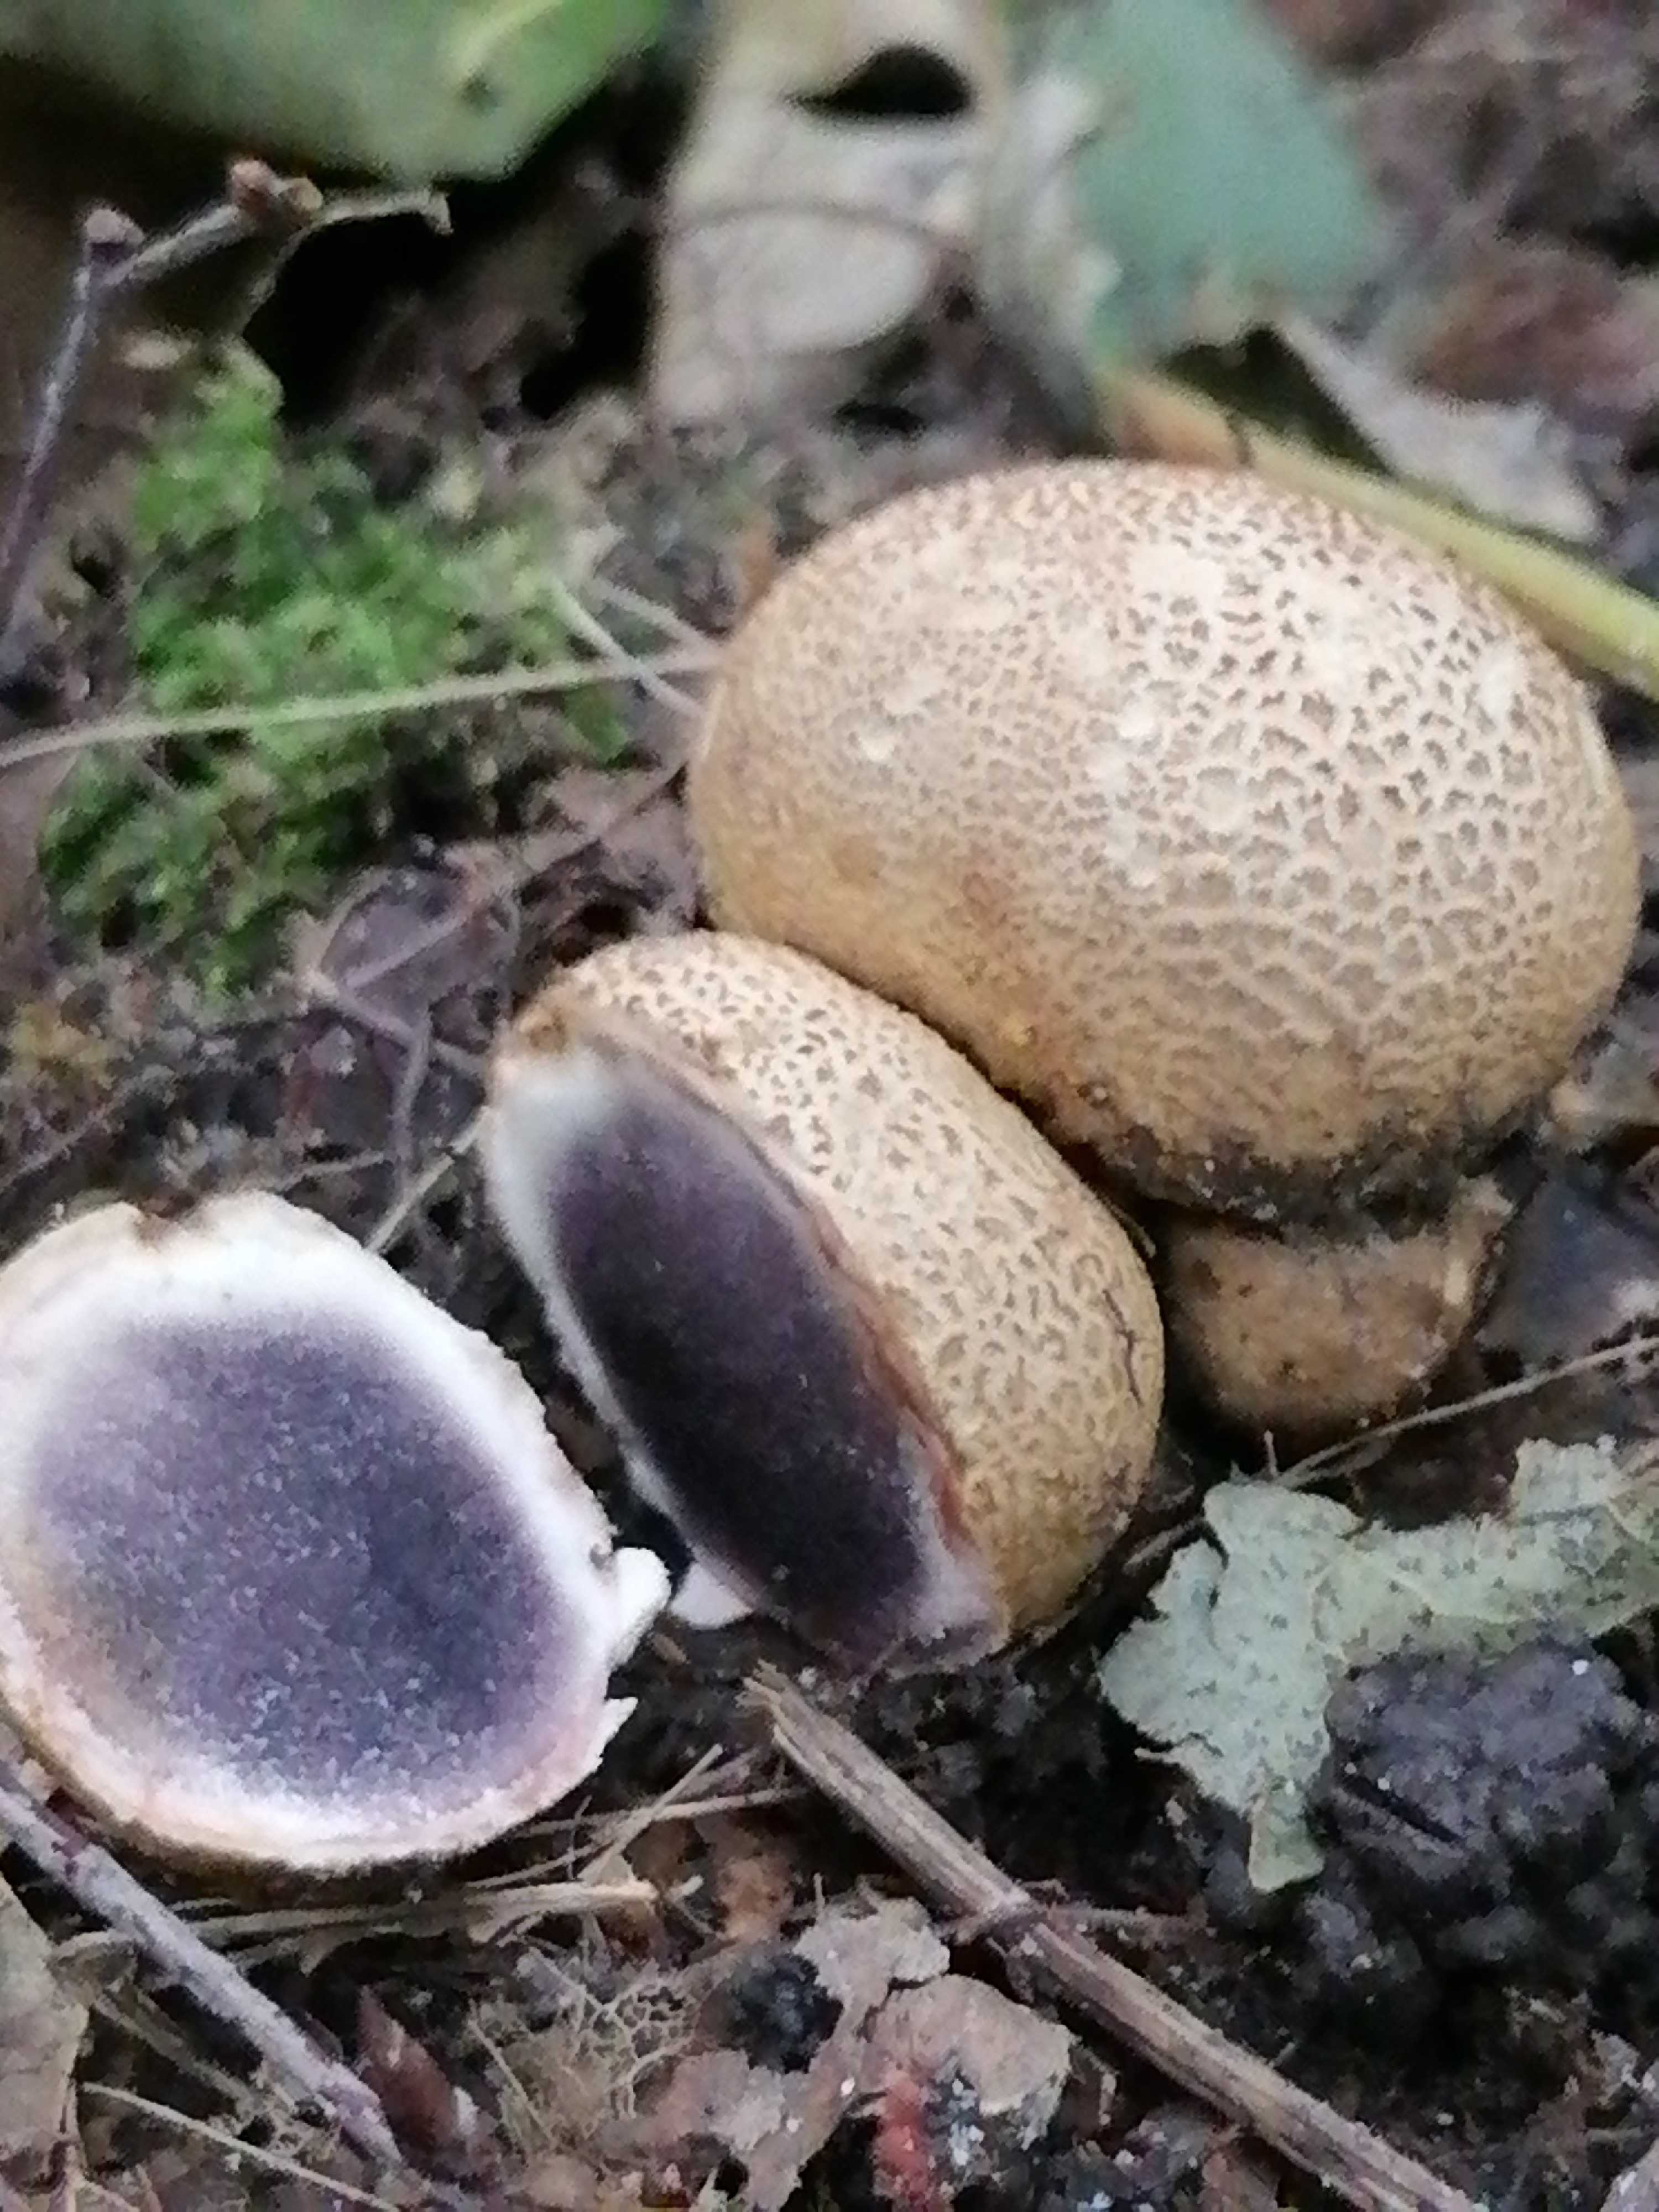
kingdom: Fungi
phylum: Basidiomycota
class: Agaricomycetes
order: Boletales
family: Sclerodermataceae
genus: Scleroderma
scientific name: Scleroderma citrinum
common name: almindelig bruskbold
